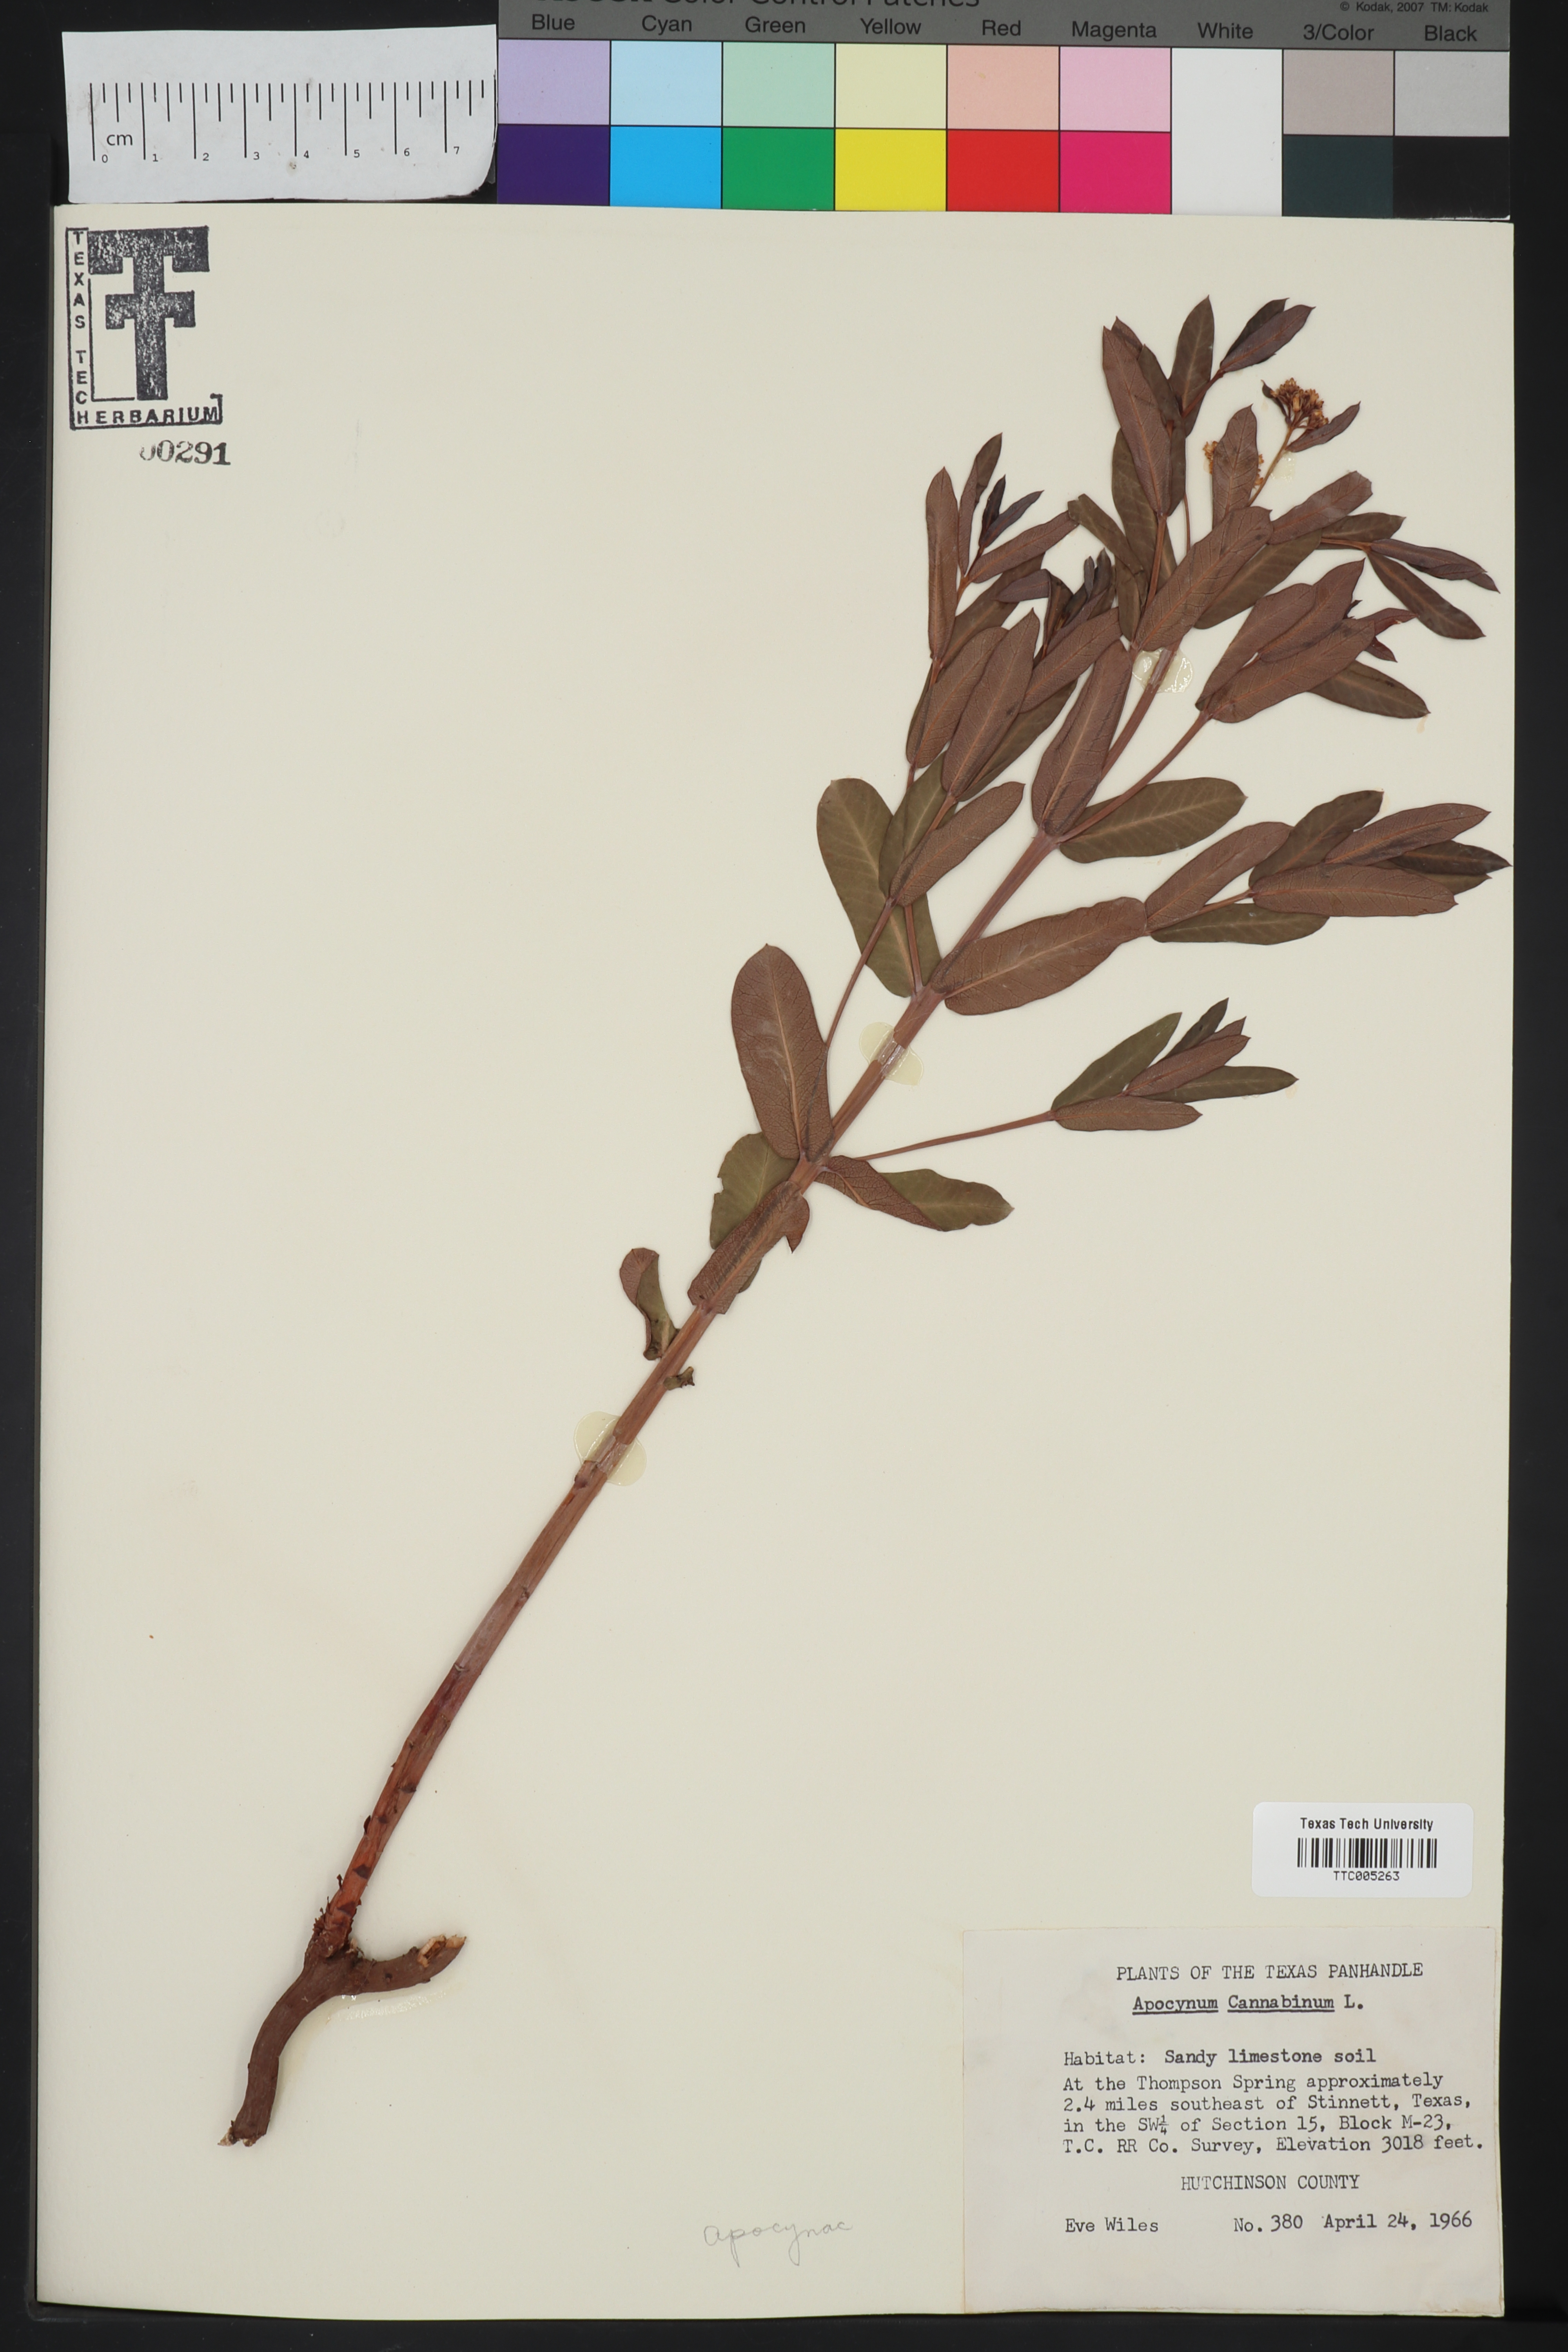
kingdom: Plantae
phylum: Tracheophyta
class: Magnoliopsida
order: Gentianales
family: Apocynaceae
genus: Apocynum
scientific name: Apocynum cannabinum
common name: Hemp dogbane
